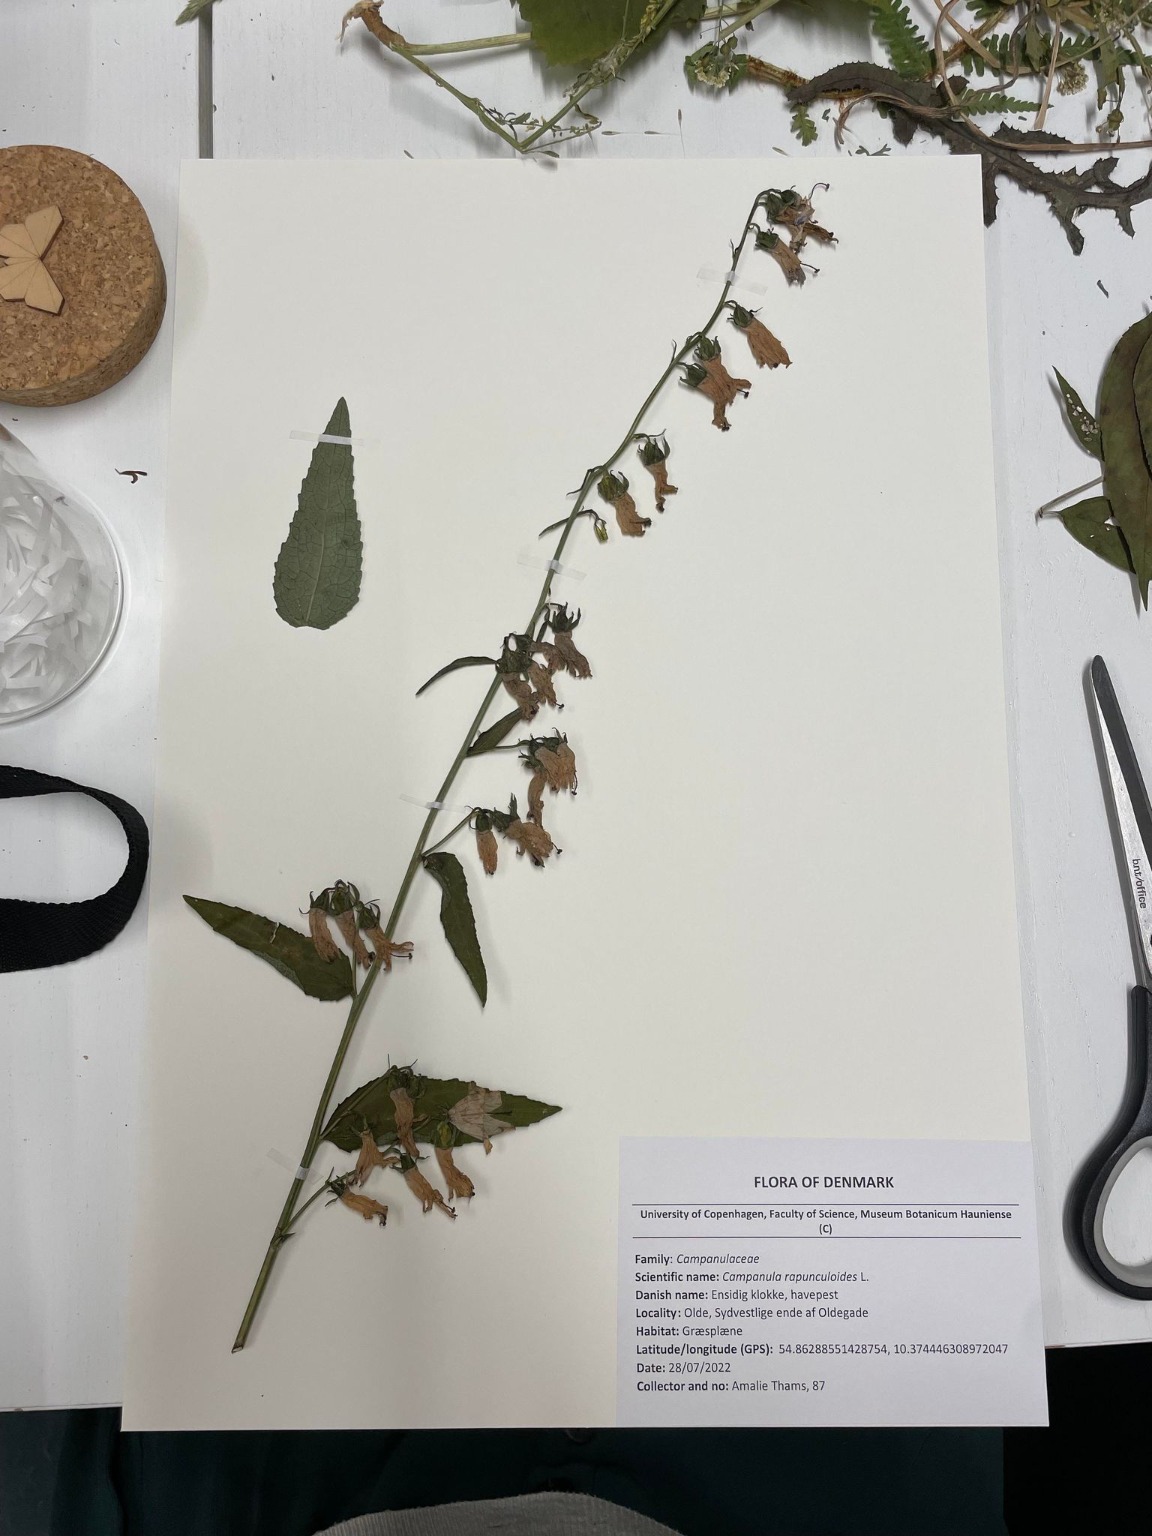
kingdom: Plantae
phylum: Tracheophyta
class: Magnoliopsida
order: Asterales
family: Campanulaceae
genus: Campanula
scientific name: Campanula rapunculoides
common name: Ensidig klokke
